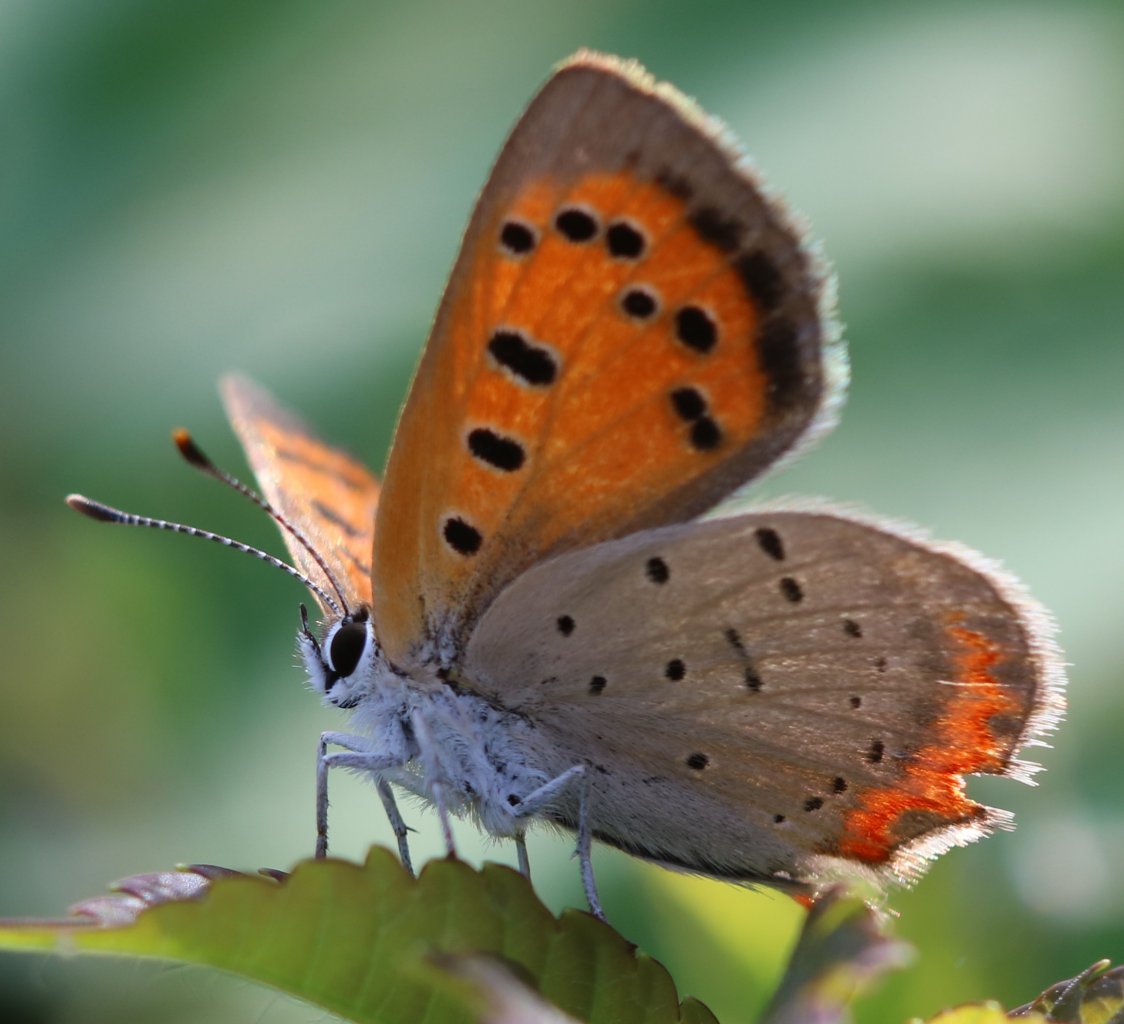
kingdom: Animalia
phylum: Arthropoda
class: Insecta
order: Lepidoptera
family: Lycaenidae
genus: Lycaena
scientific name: Lycaena phlaeas
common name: American Copper
